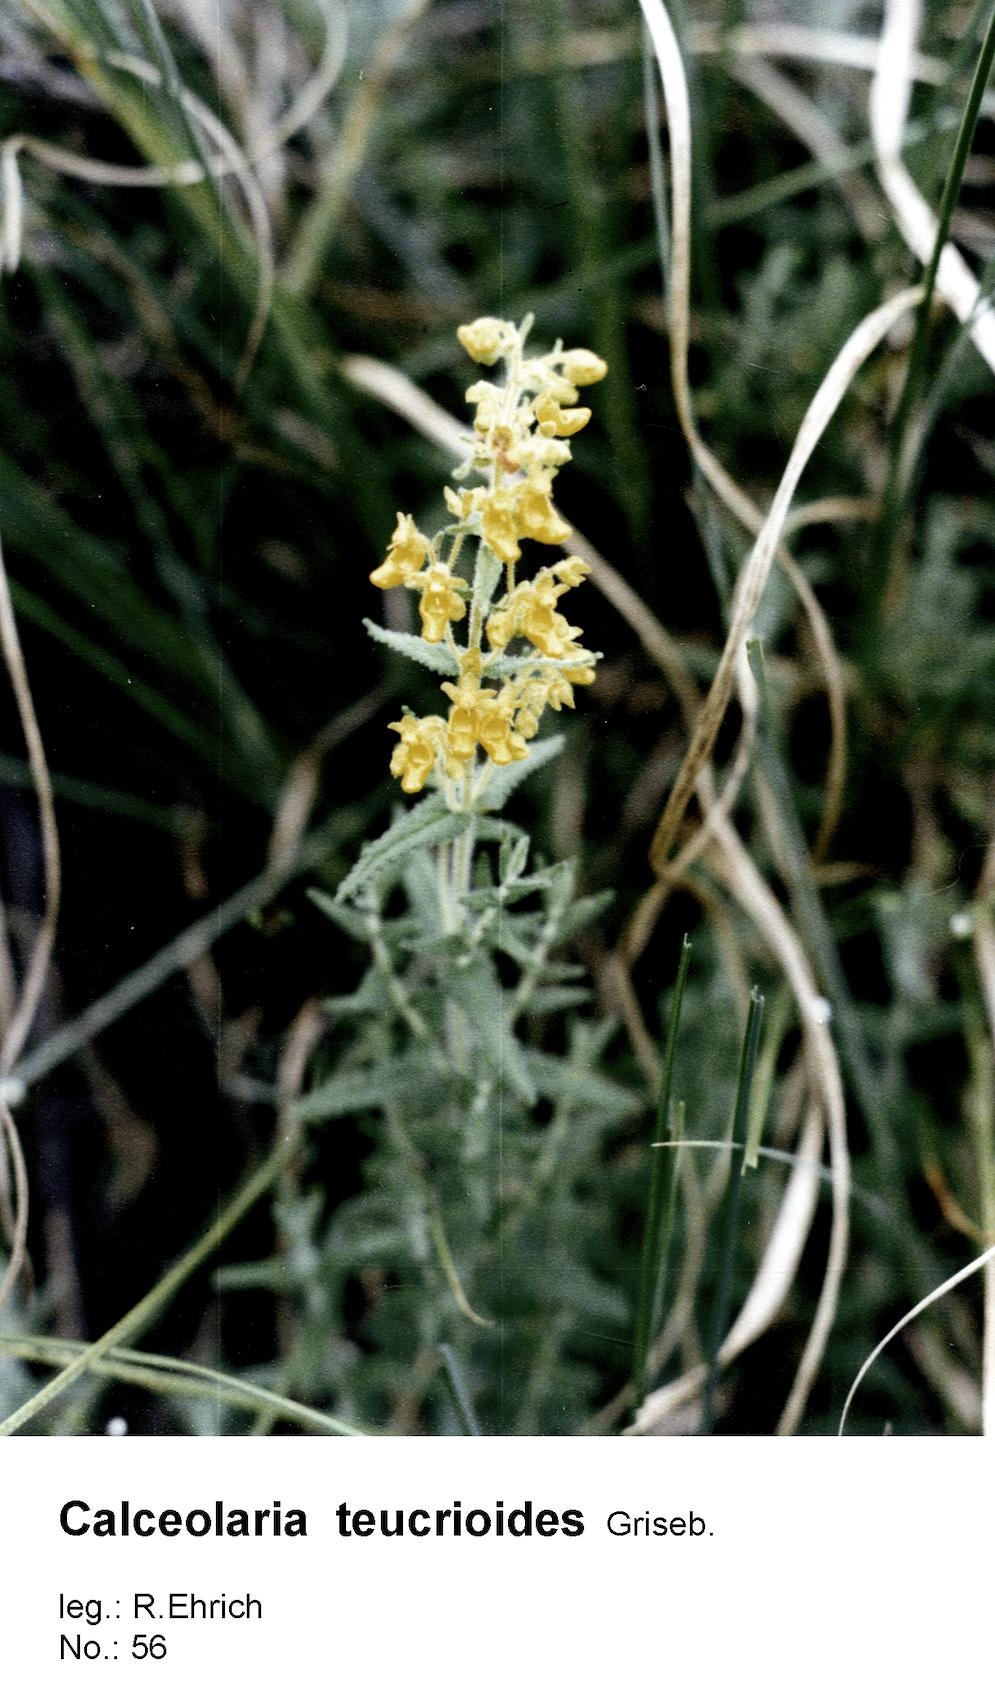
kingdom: Plantae
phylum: Tracheophyta
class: Magnoliopsida
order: Lamiales
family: Calceolariaceae
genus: Calceolaria
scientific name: Calceolaria teucrioides
